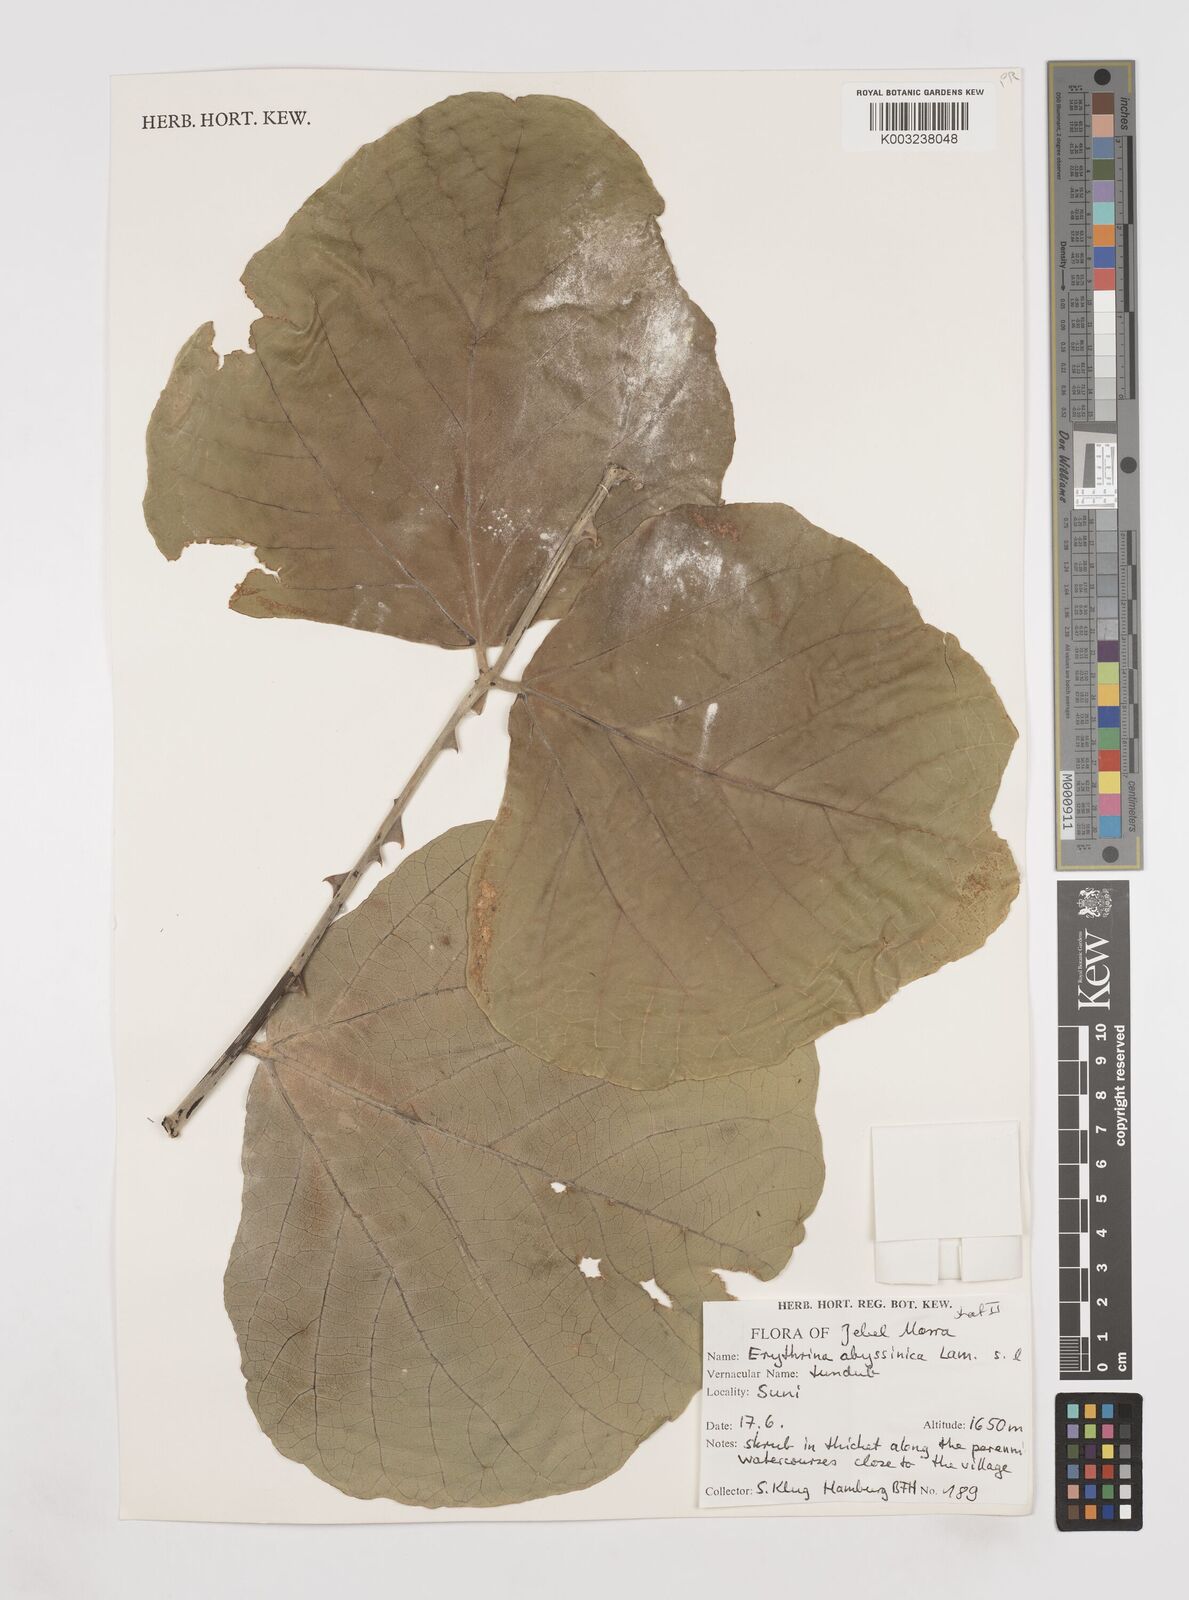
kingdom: Plantae
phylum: Tracheophyta
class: Magnoliopsida
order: Fabales
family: Fabaceae
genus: Erythrina
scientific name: Erythrina abyssinica
